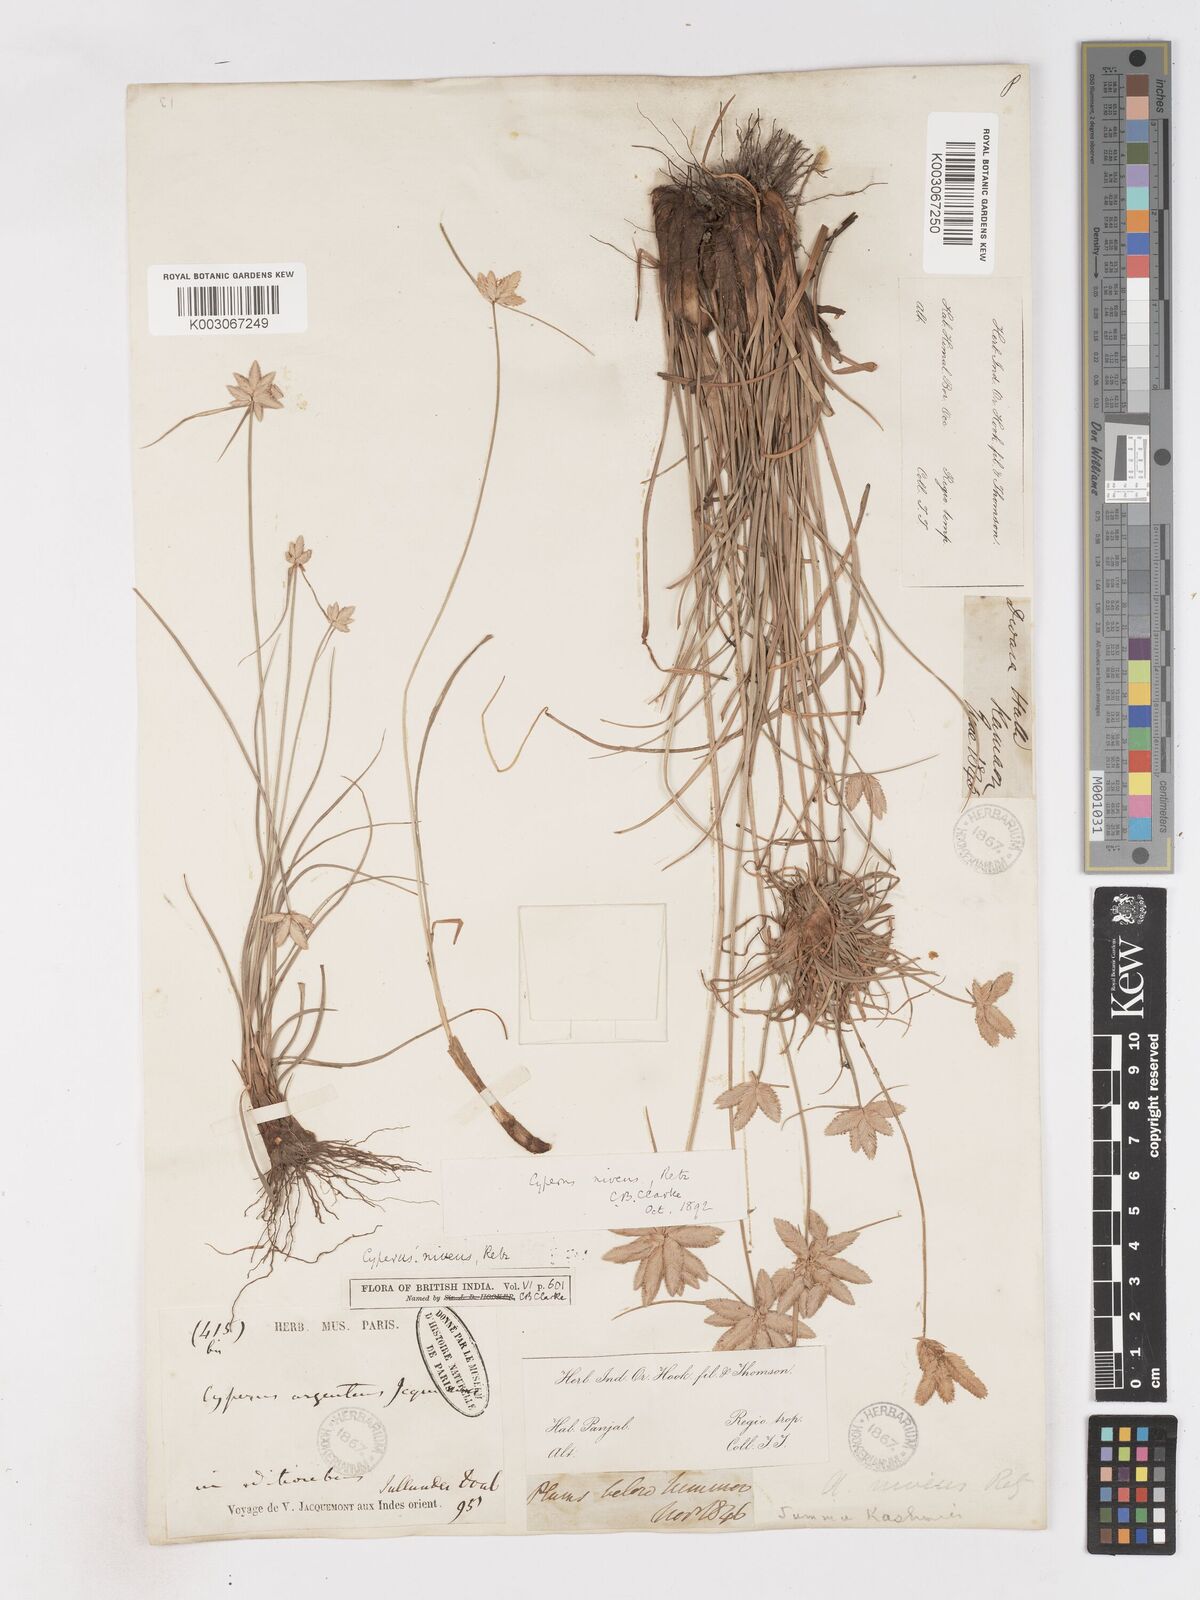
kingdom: Plantae
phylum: Tracheophyta
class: Liliopsida
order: Poales
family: Cyperaceae
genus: Cyperus
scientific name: Cyperus niveus
